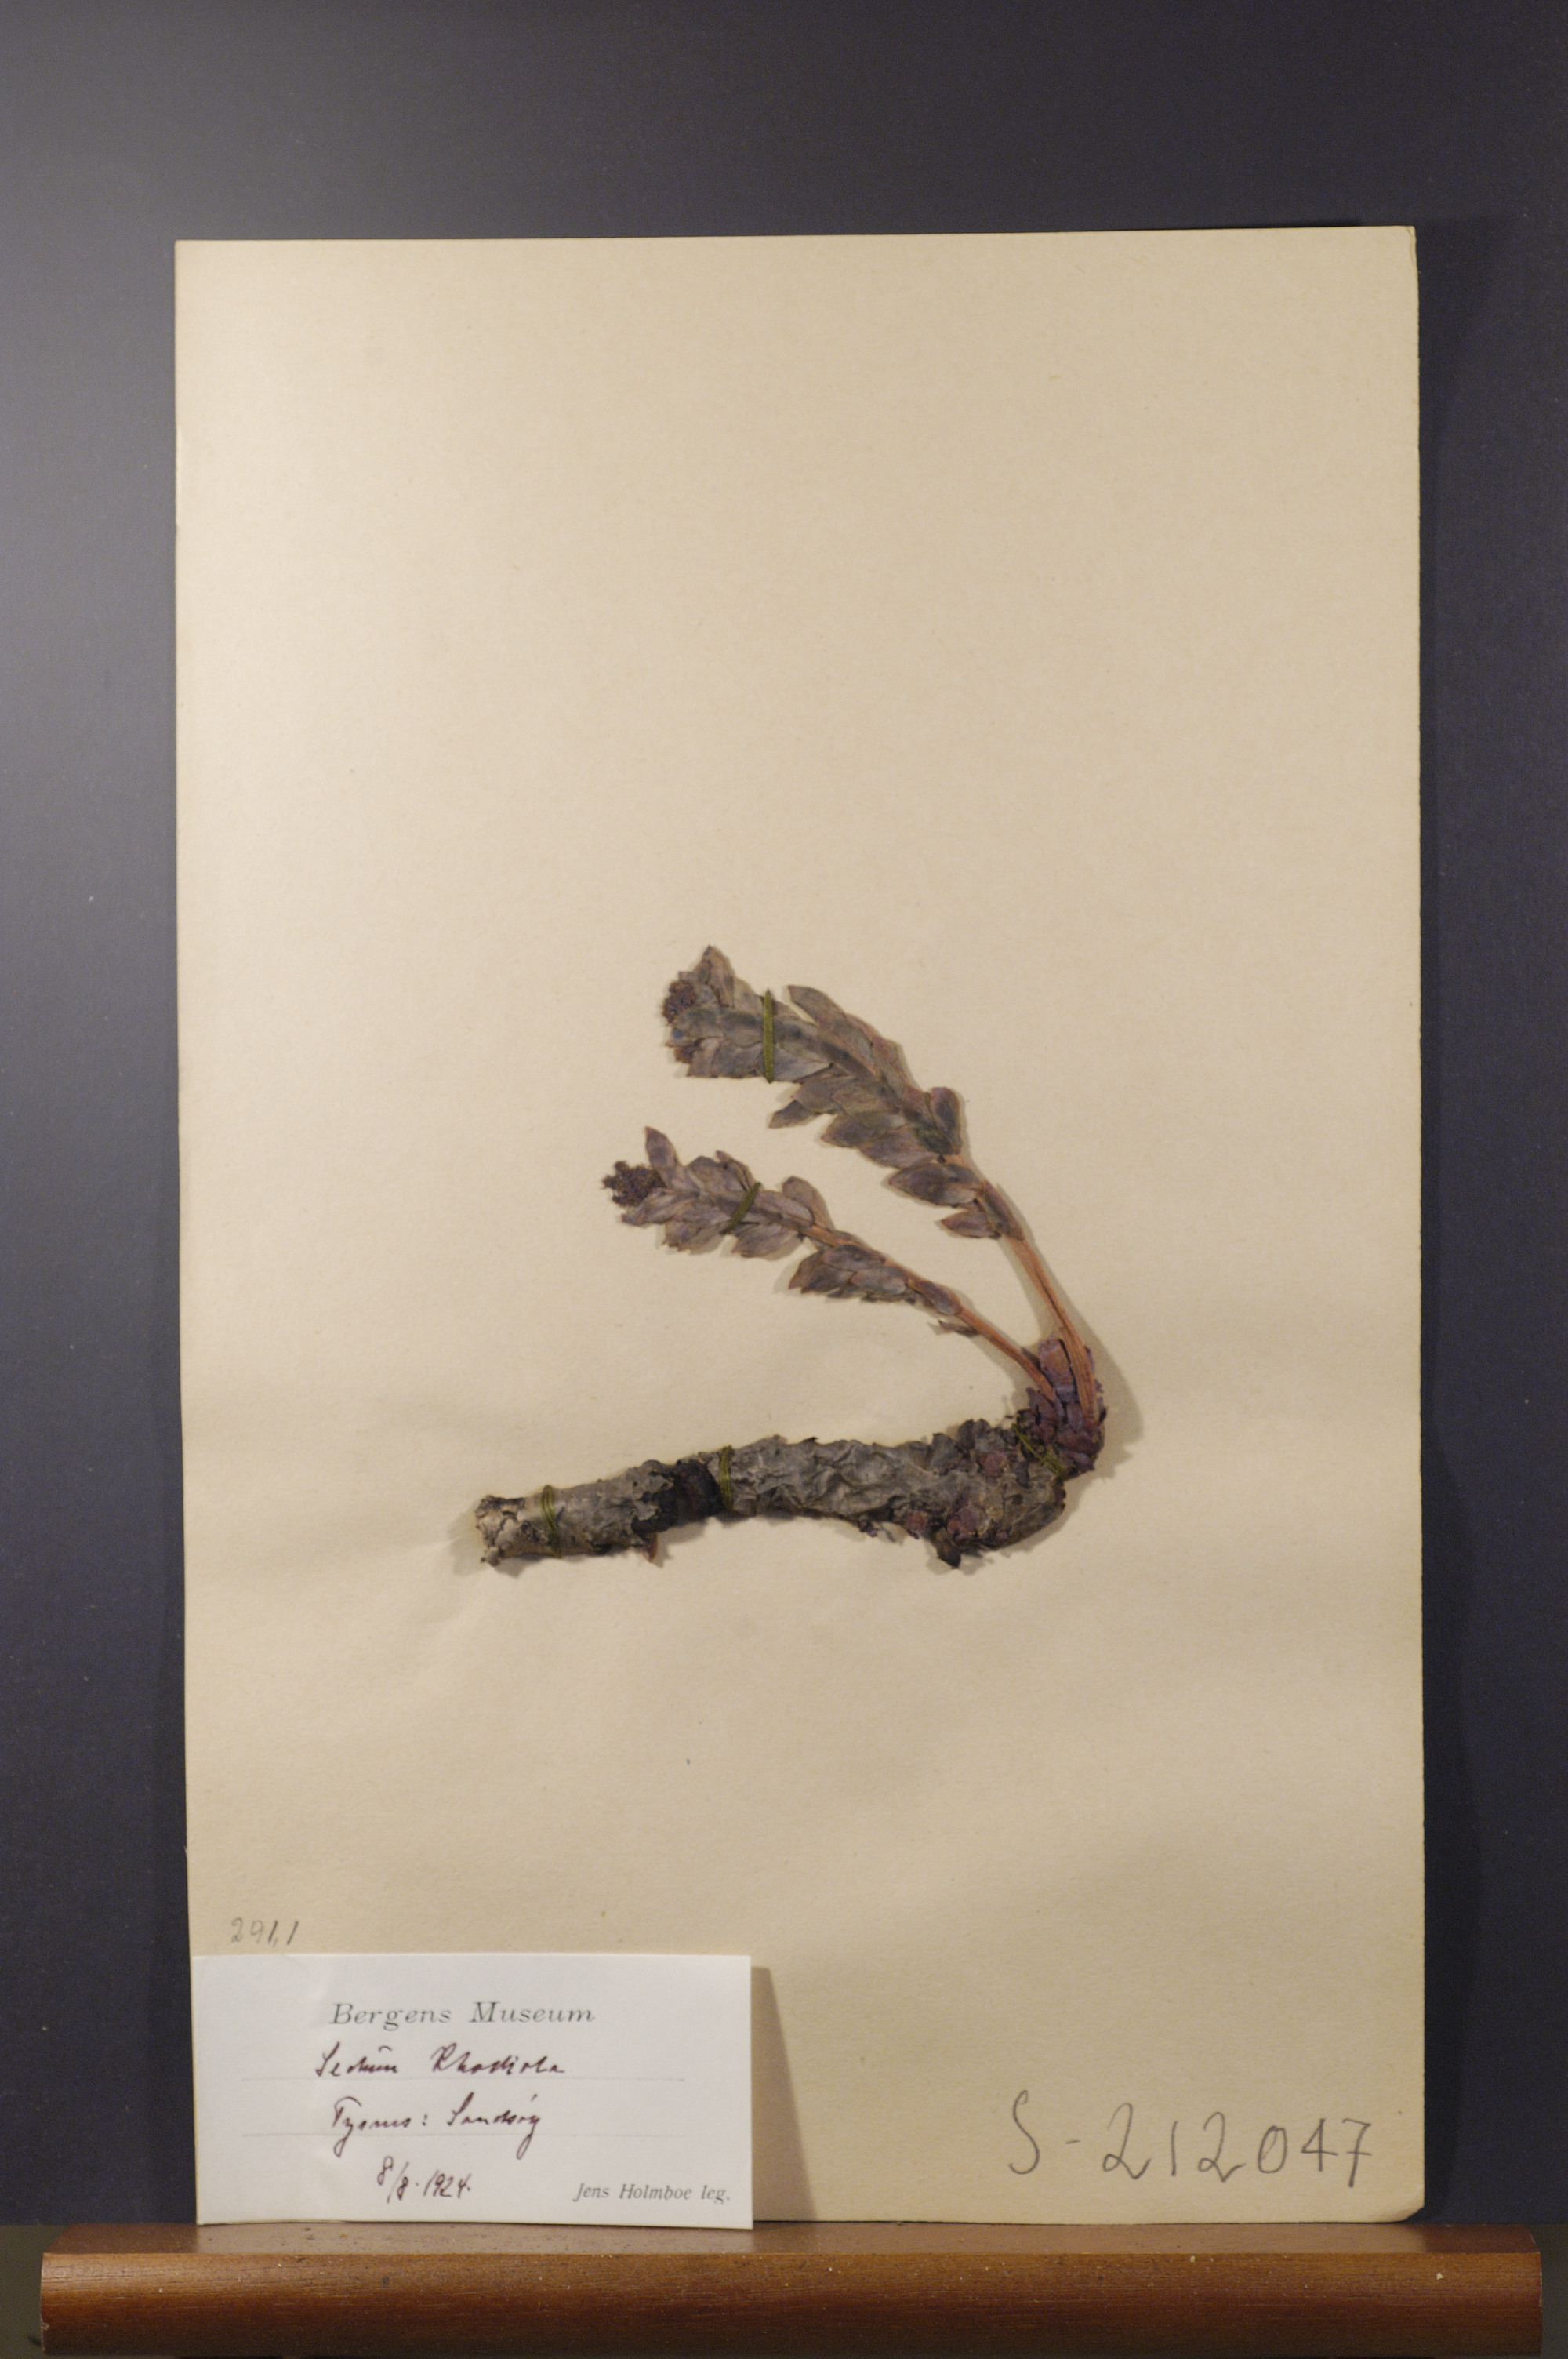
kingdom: Plantae
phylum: Tracheophyta
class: Magnoliopsida
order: Saxifragales
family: Crassulaceae
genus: Rhodiola
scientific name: Rhodiola rosea
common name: Roseroot
